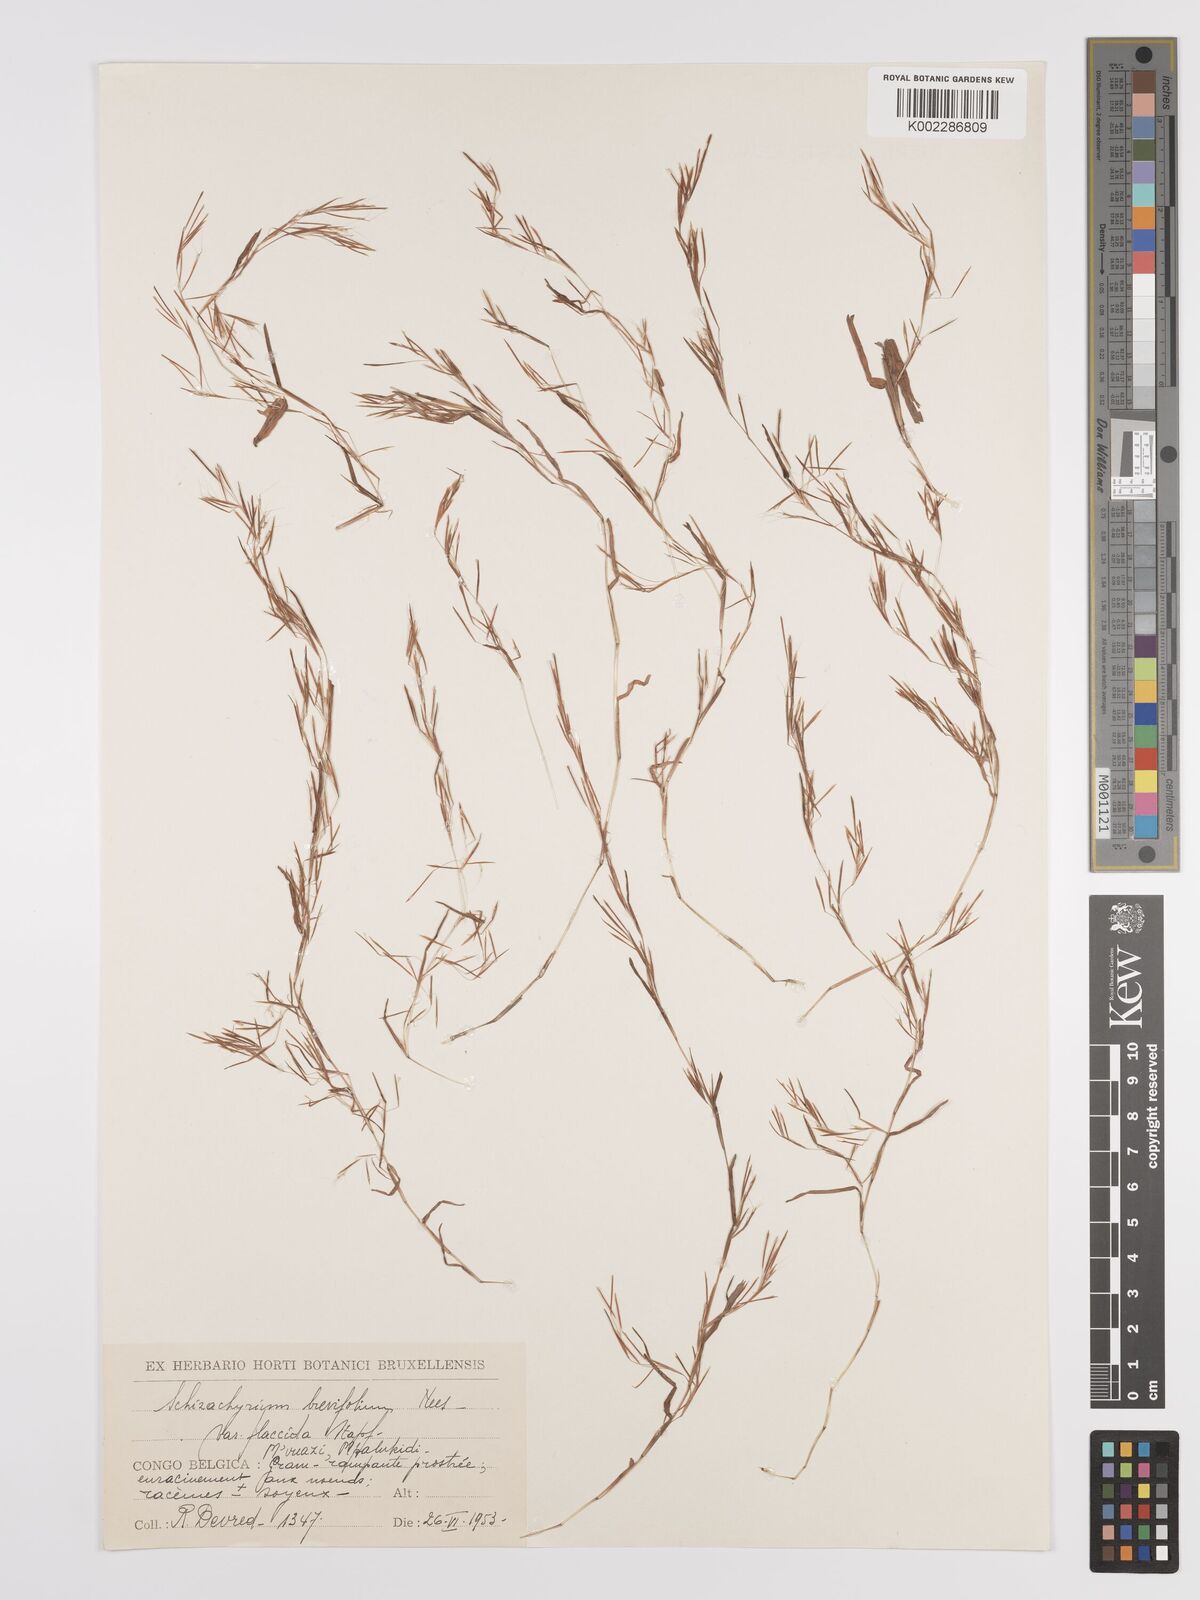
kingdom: Plantae
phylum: Tracheophyta
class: Liliopsida
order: Poales
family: Poaceae
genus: Schizachyrium
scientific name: Schizachyrium brevifolium
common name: Serillo dulce
